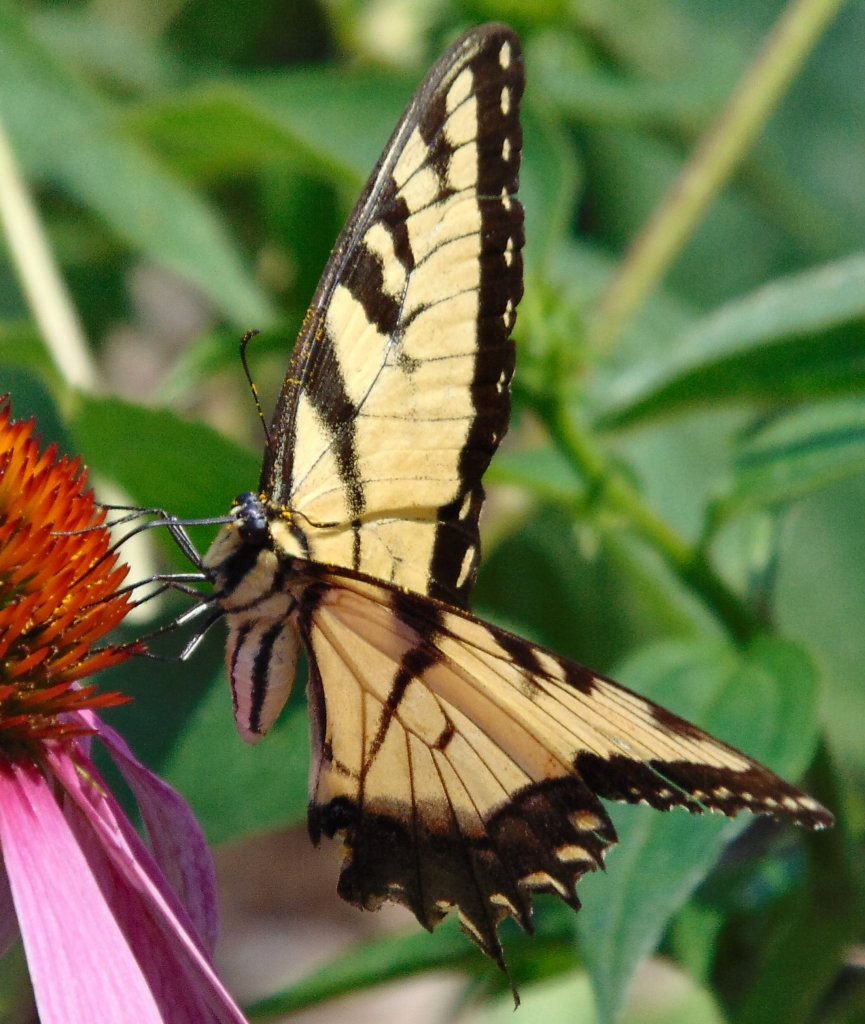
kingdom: Animalia
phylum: Arthropoda
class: Insecta
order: Lepidoptera
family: Papilionidae
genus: Pterourus
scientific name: Pterourus glaucus
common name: Eastern Tiger Swallowtail
